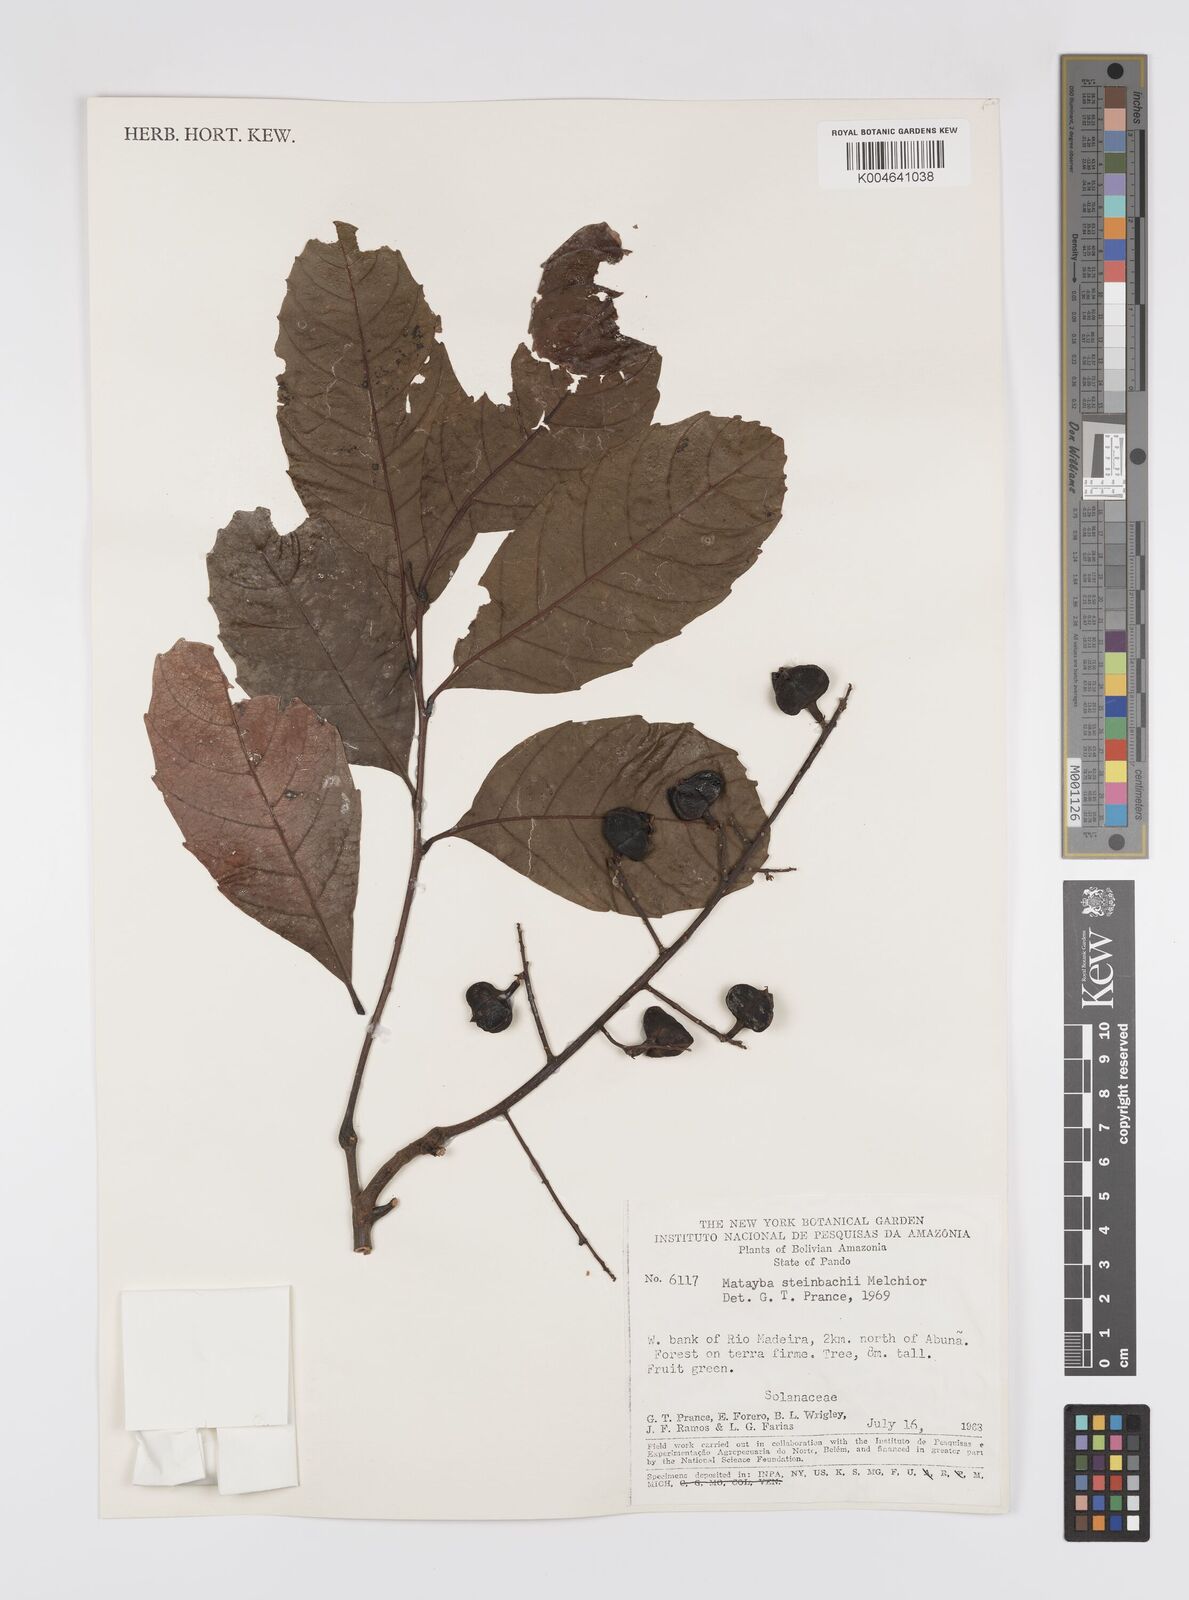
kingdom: Plantae
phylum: Tracheophyta
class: Magnoliopsida
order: Sapindales
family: Sapindaceae
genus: Matayba
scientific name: Matayba guianensis
